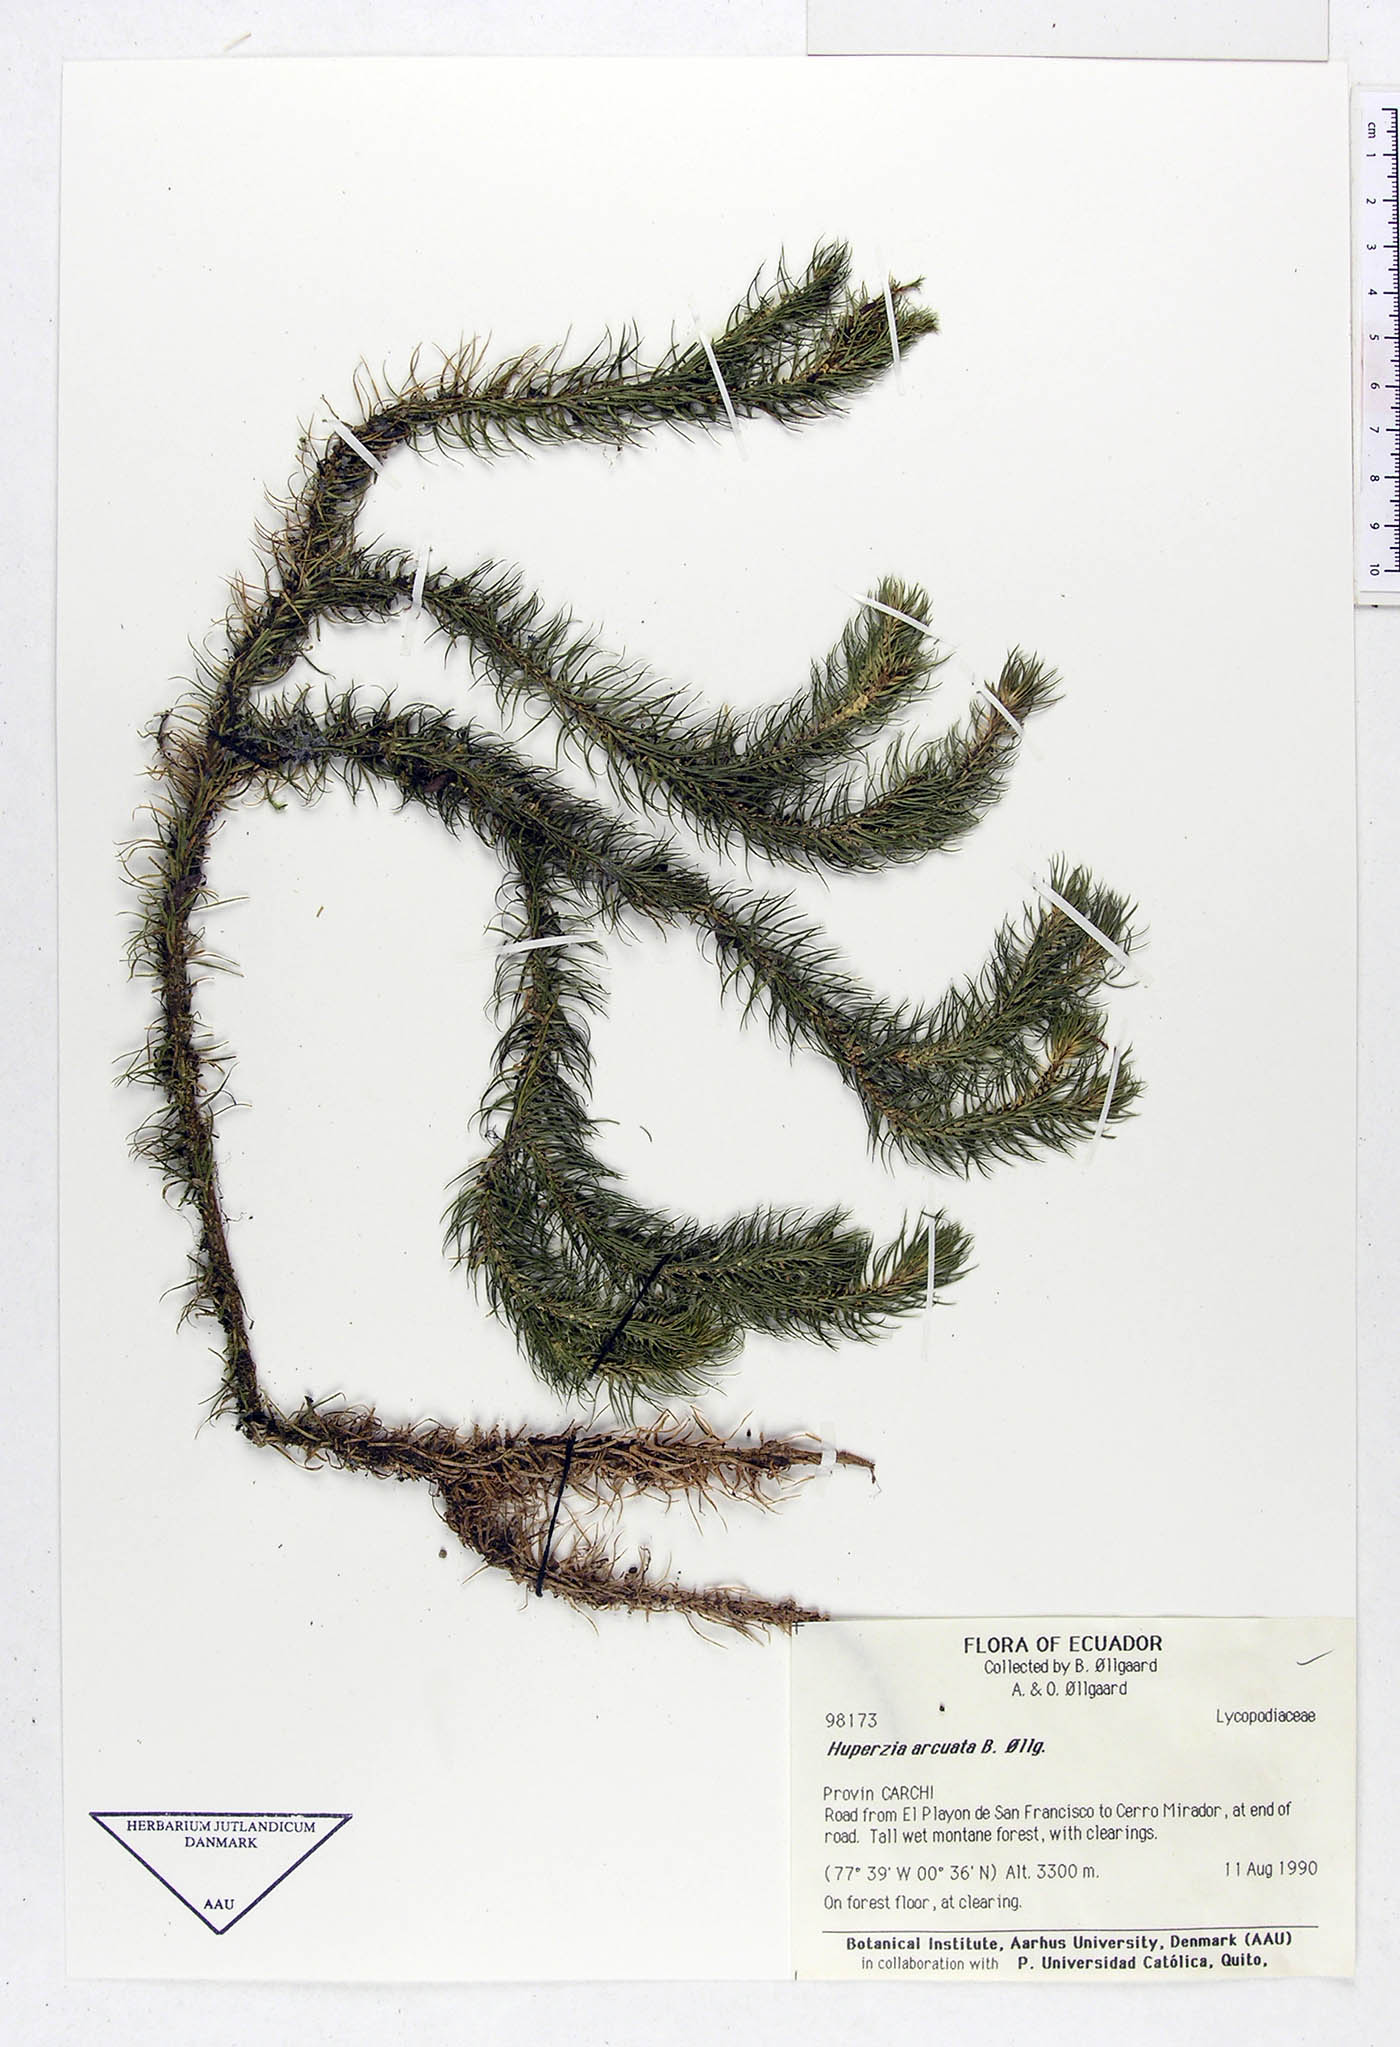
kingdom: Plantae
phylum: Tracheophyta
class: Lycopodiopsida
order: Lycopodiales
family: Lycopodiaceae
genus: Phlegmariurus
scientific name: Phlegmariurus arcuatus
